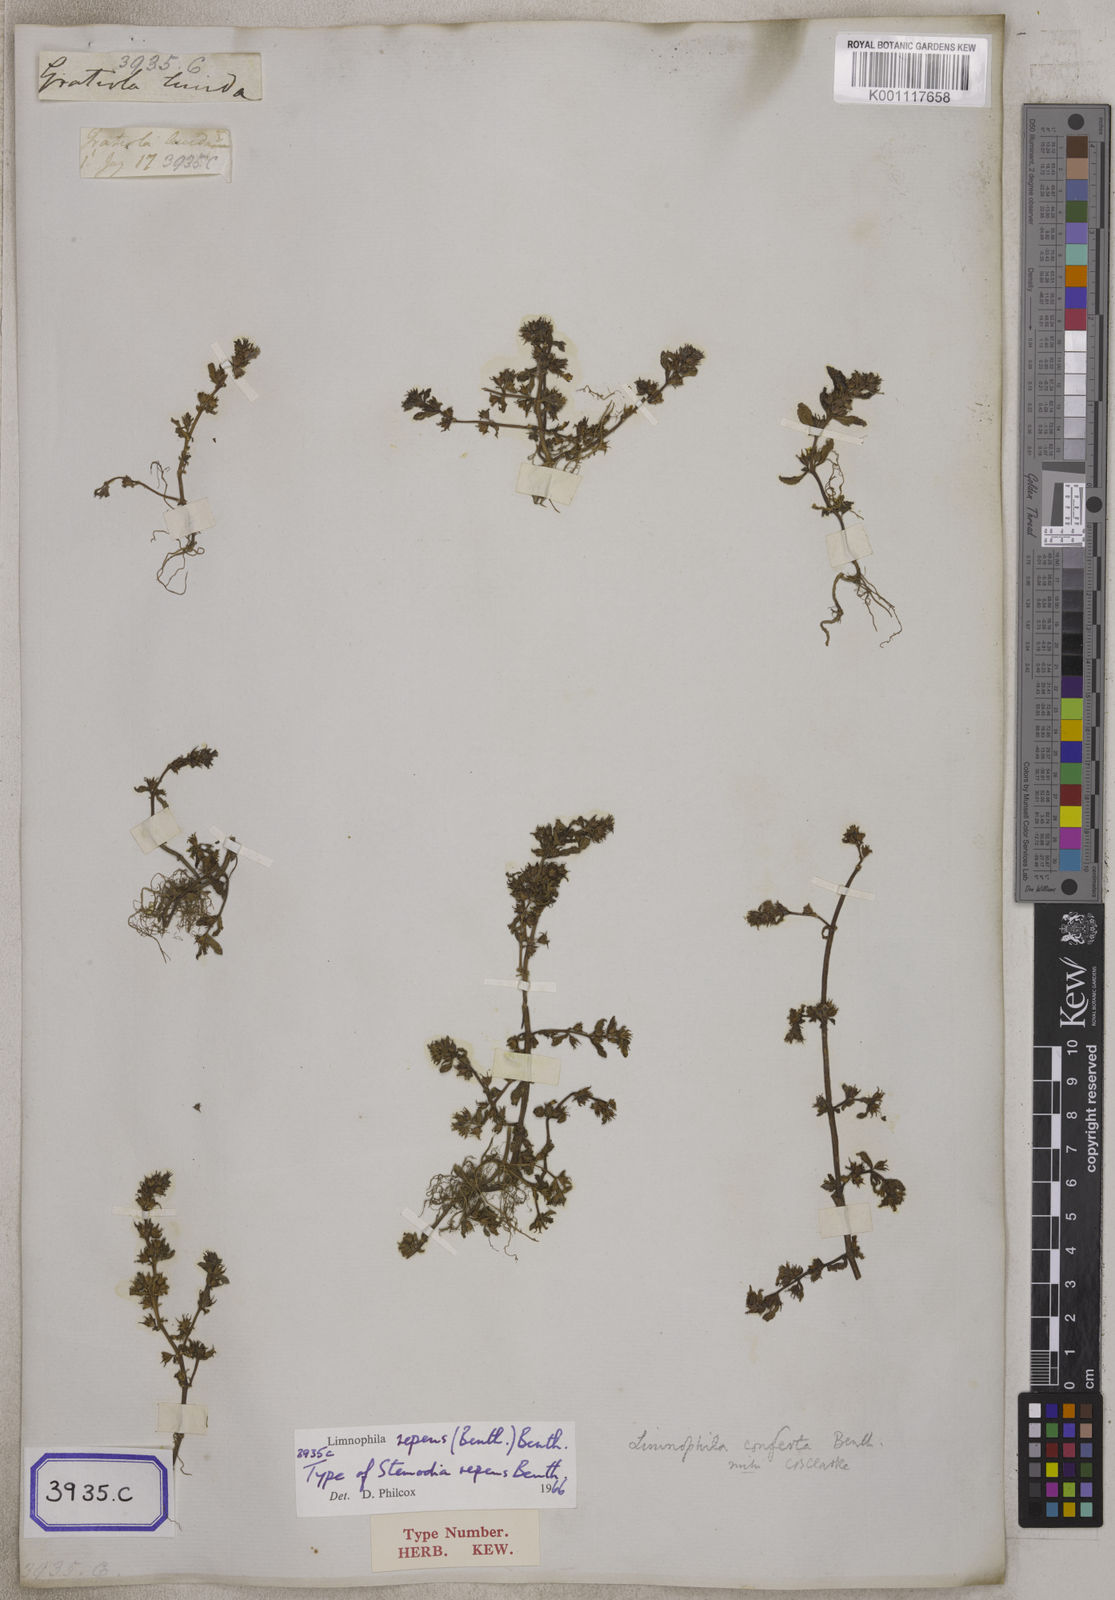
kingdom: Plantae
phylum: Tracheophyta
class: Magnoliopsida
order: Lamiales
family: Plantaginaceae
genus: Limnophila
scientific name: Limnophila repens
